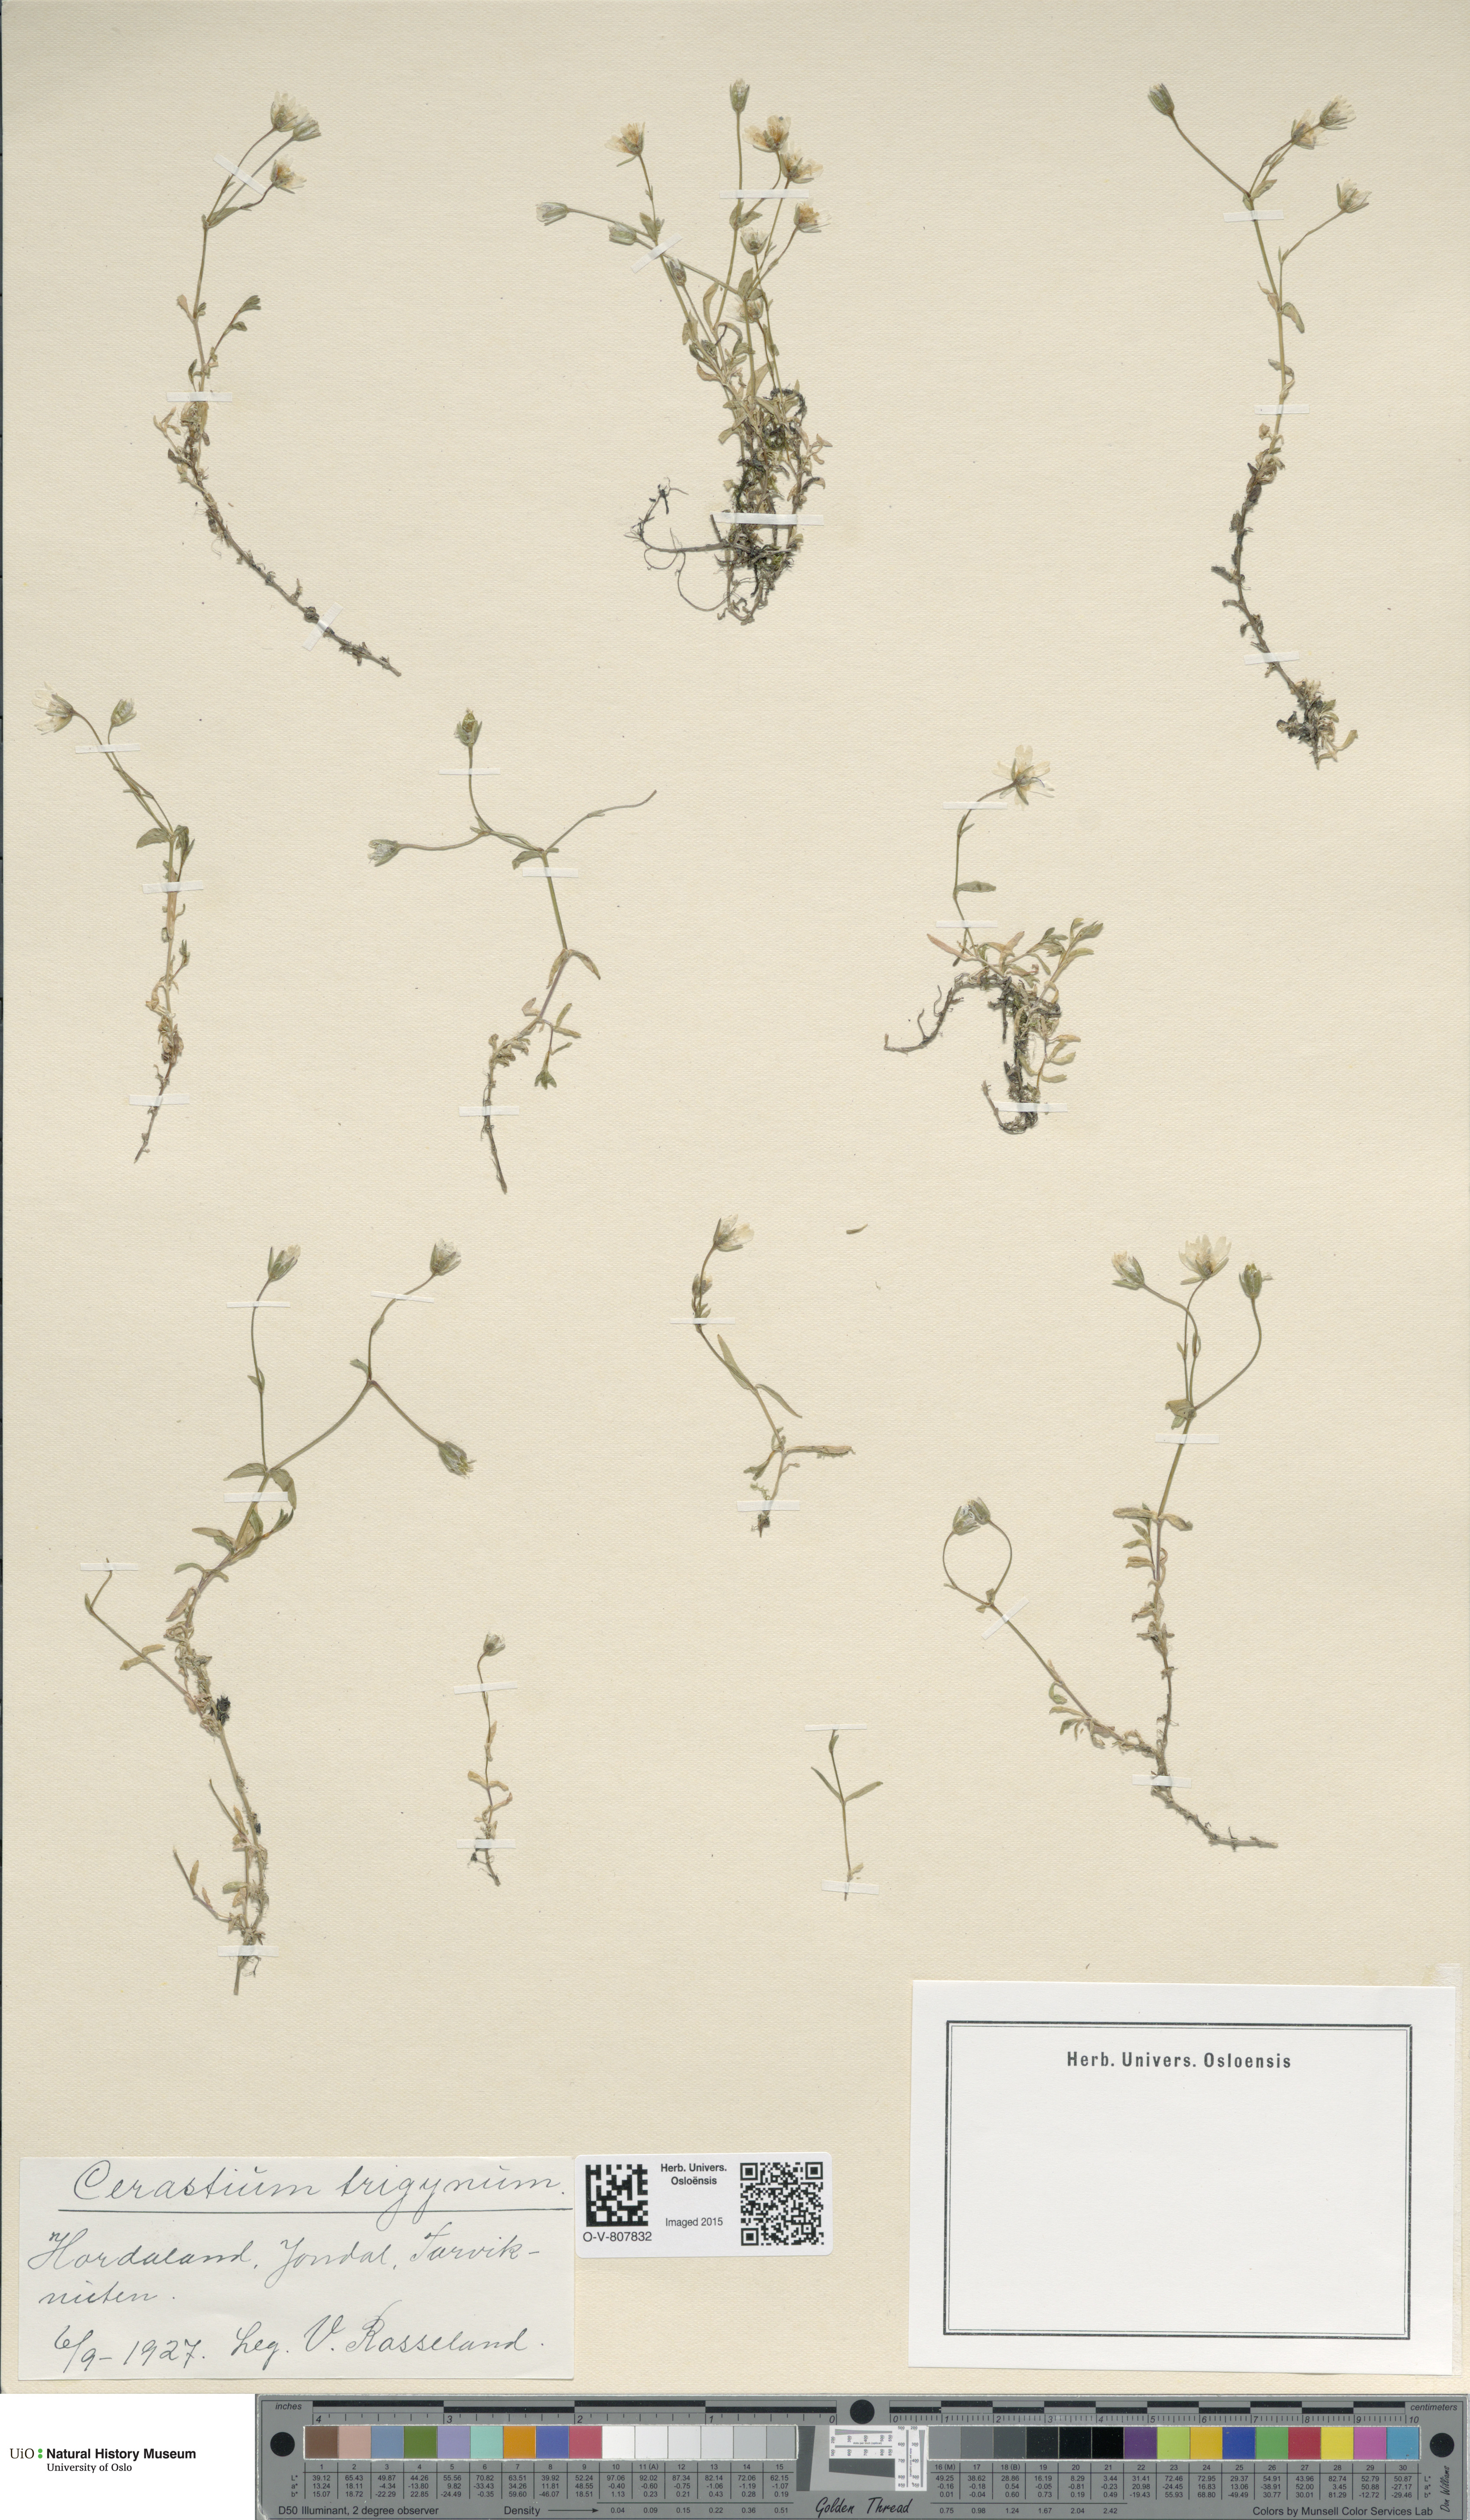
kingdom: Plantae
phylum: Tracheophyta
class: Magnoliopsida
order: Caryophyllales
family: Caryophyllaceae
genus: Dichodon
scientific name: Dichodon cerastoides
